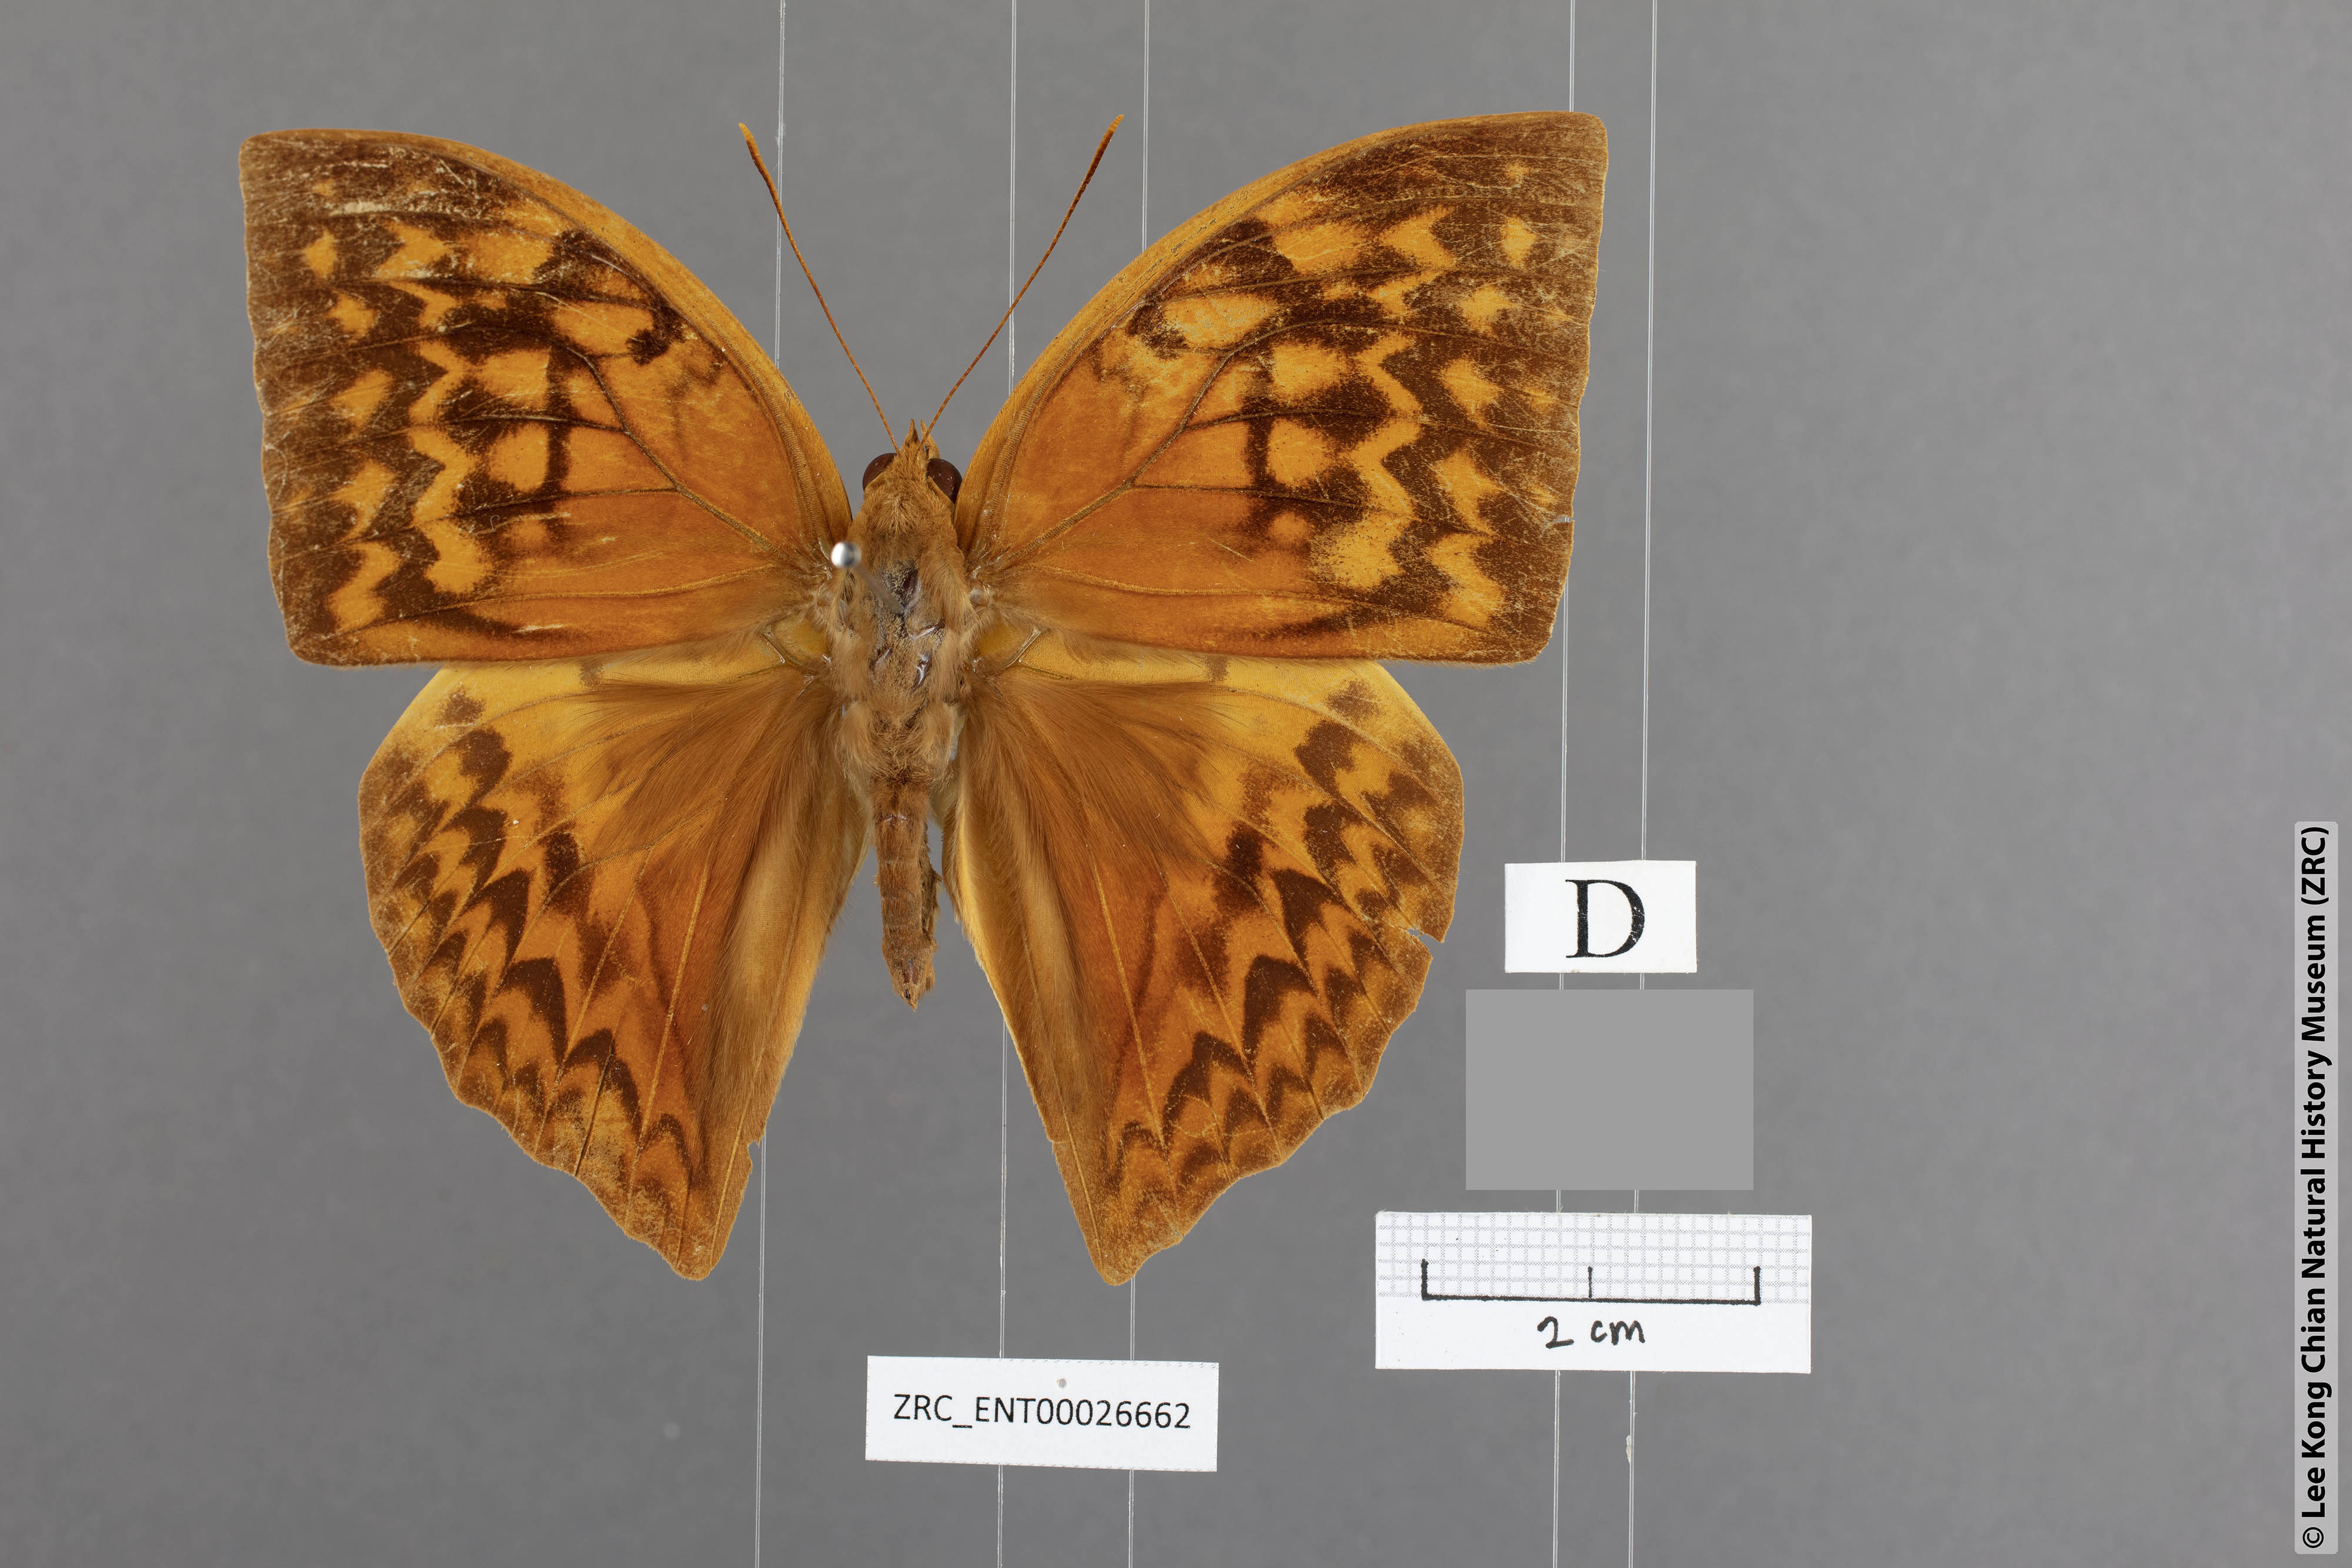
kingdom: Animalia
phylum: Arthropoda
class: Insecta
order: Lepidoptera
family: Nymphalidae
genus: Enispe
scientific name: Enispe intermedia
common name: Intermediate caliph
